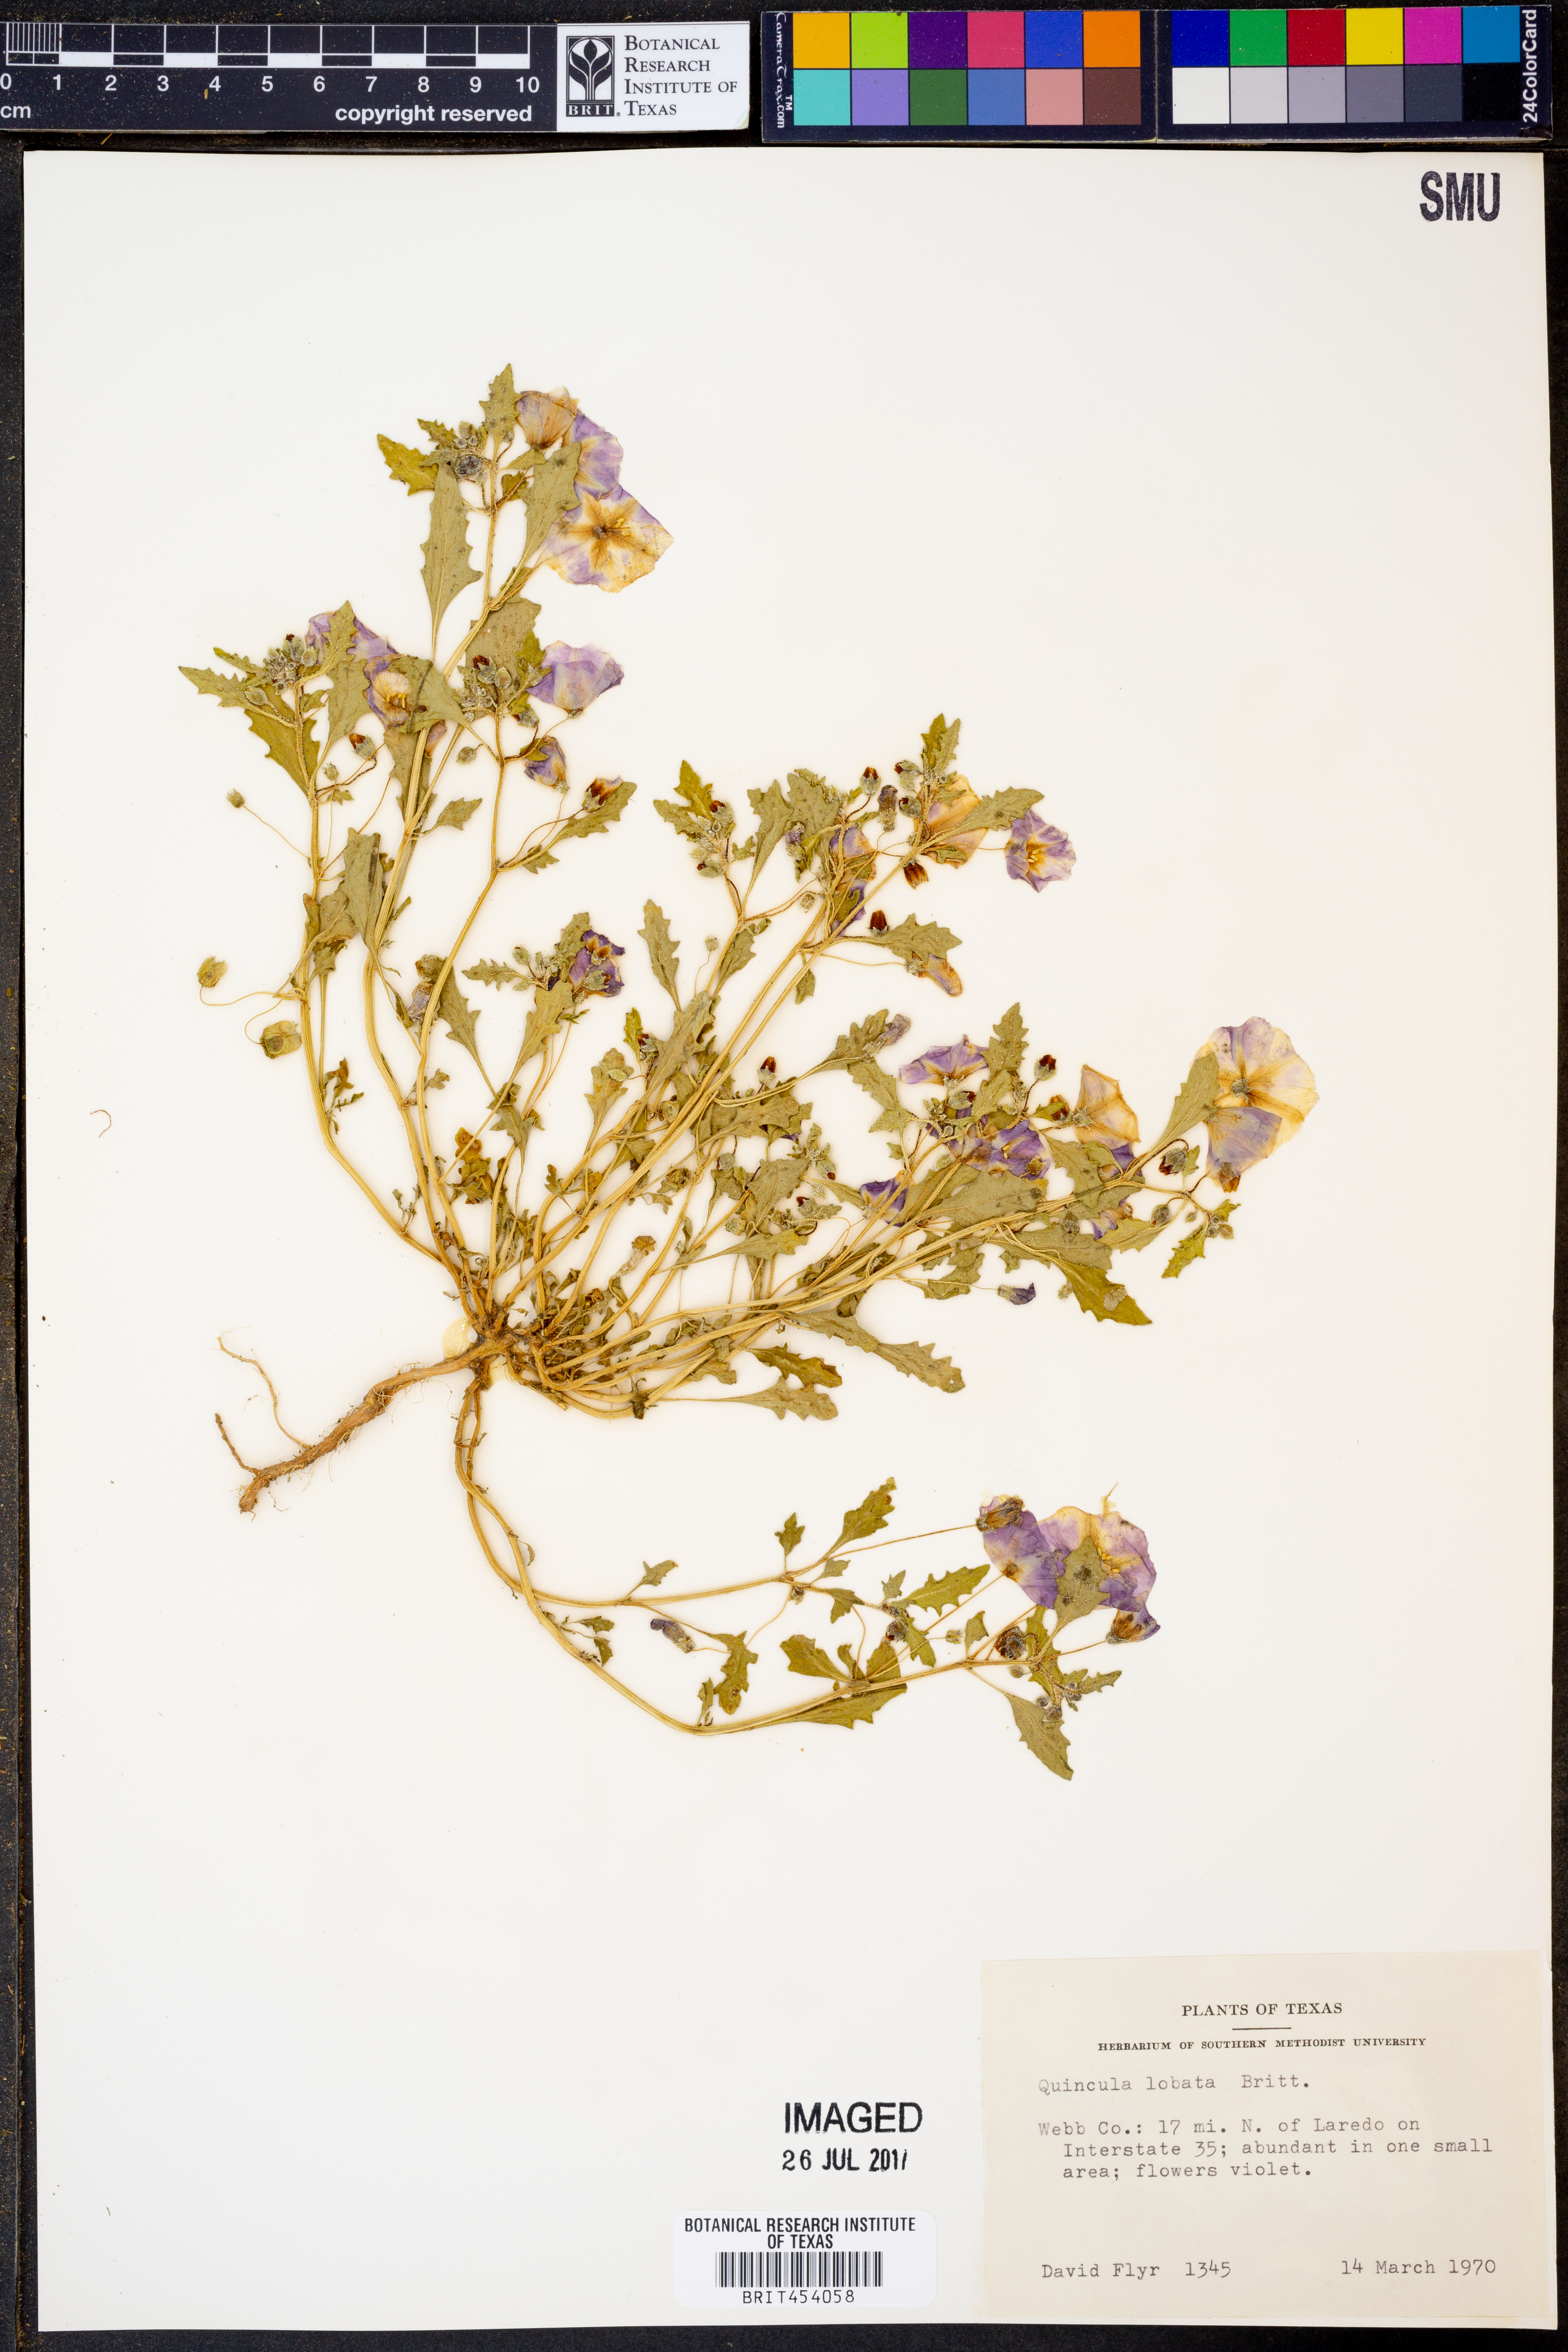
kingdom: Plantae
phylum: Tracheophyta
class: Magnoliopsida
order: Solanales
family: Solanaceae
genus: Quincula
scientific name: Quincula lobata
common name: Purple-ground-cherry
